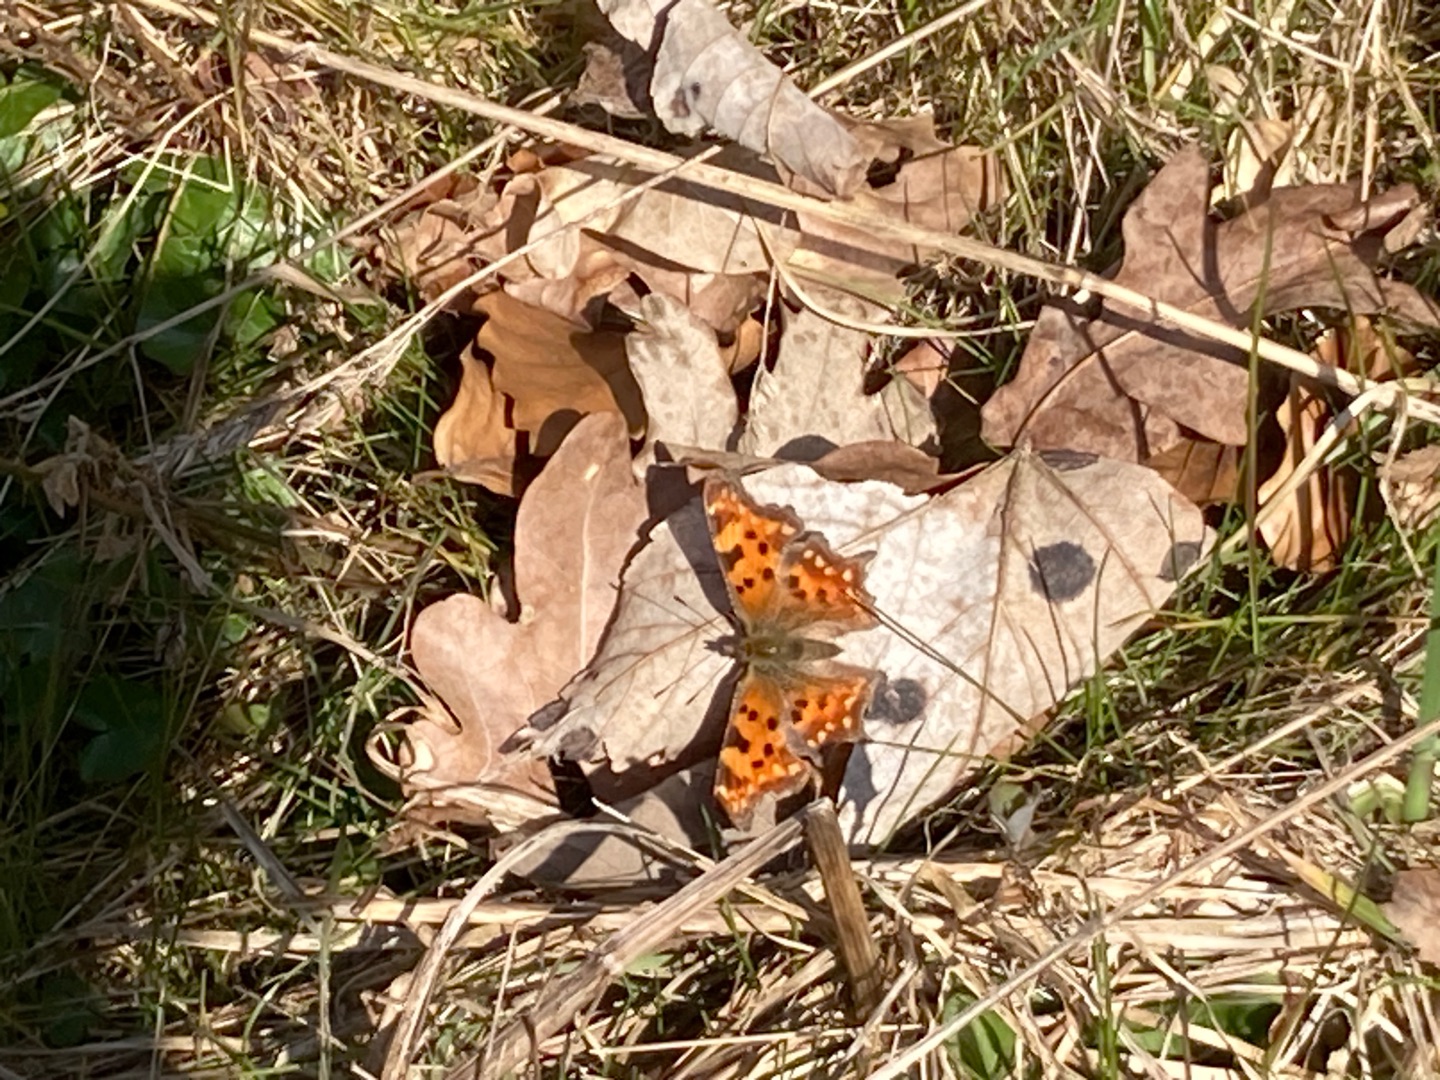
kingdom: Animalia
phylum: Arthropoda
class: Insecta
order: Lepidoptera
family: Nymphalidae
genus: Polygonia
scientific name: Polygonia c-album
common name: Det hvide C
